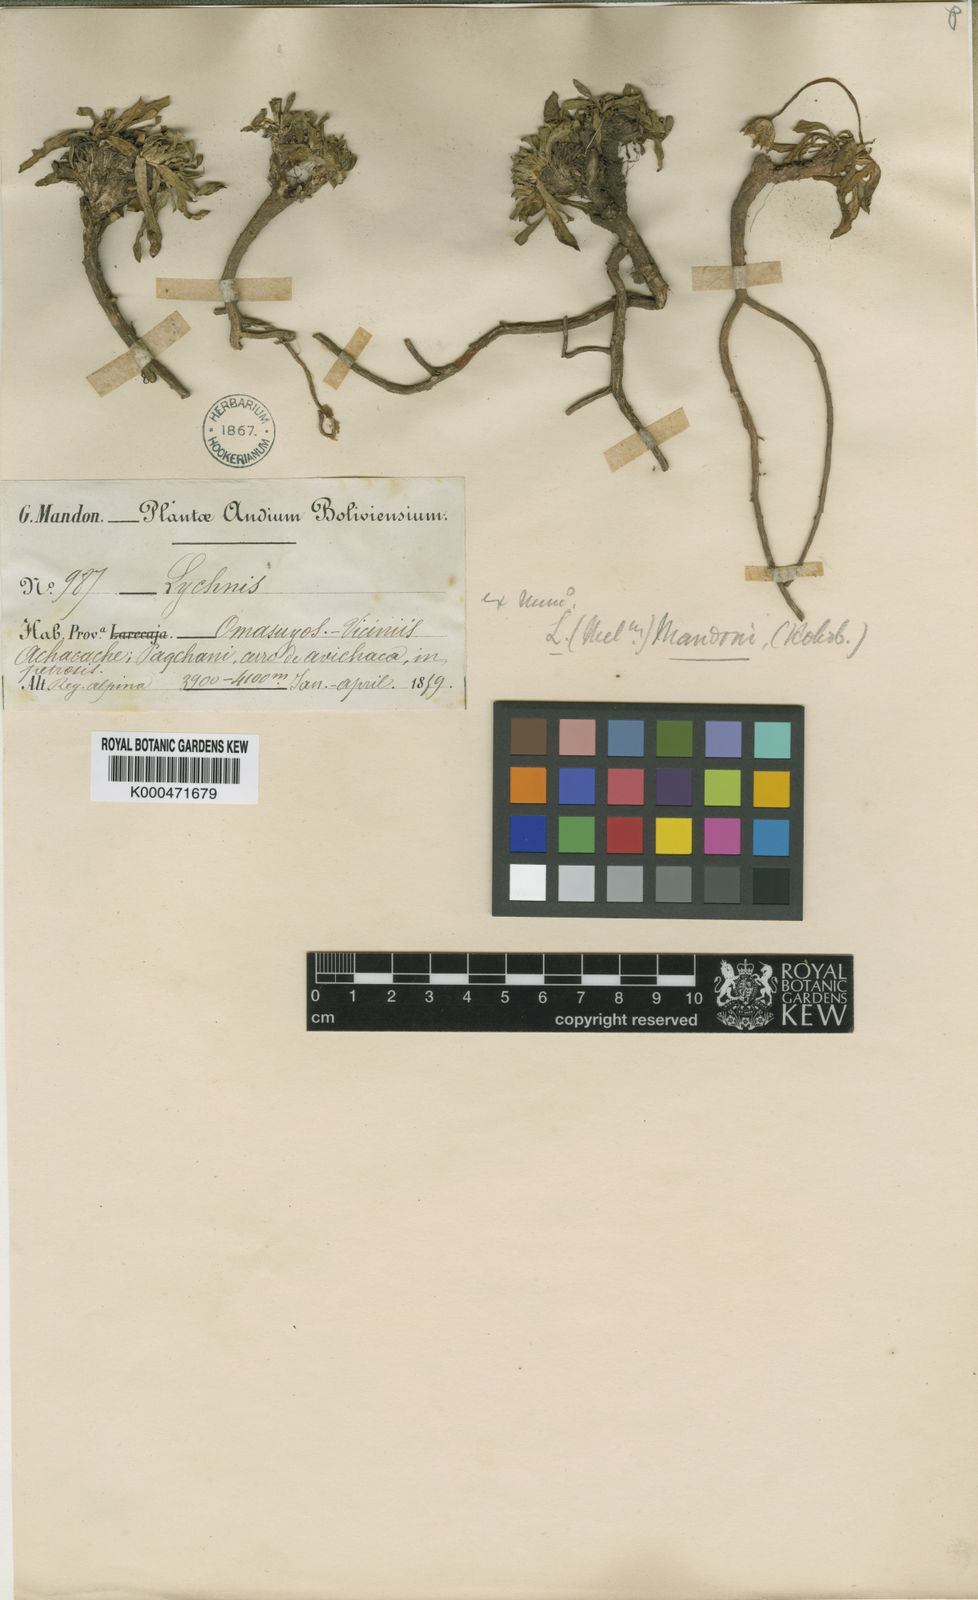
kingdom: Plantae
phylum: Tracheophyta
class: Magnoliopsida
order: Caryophyllales
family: Caryophyllaceae
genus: Silene
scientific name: Silene mandonii
